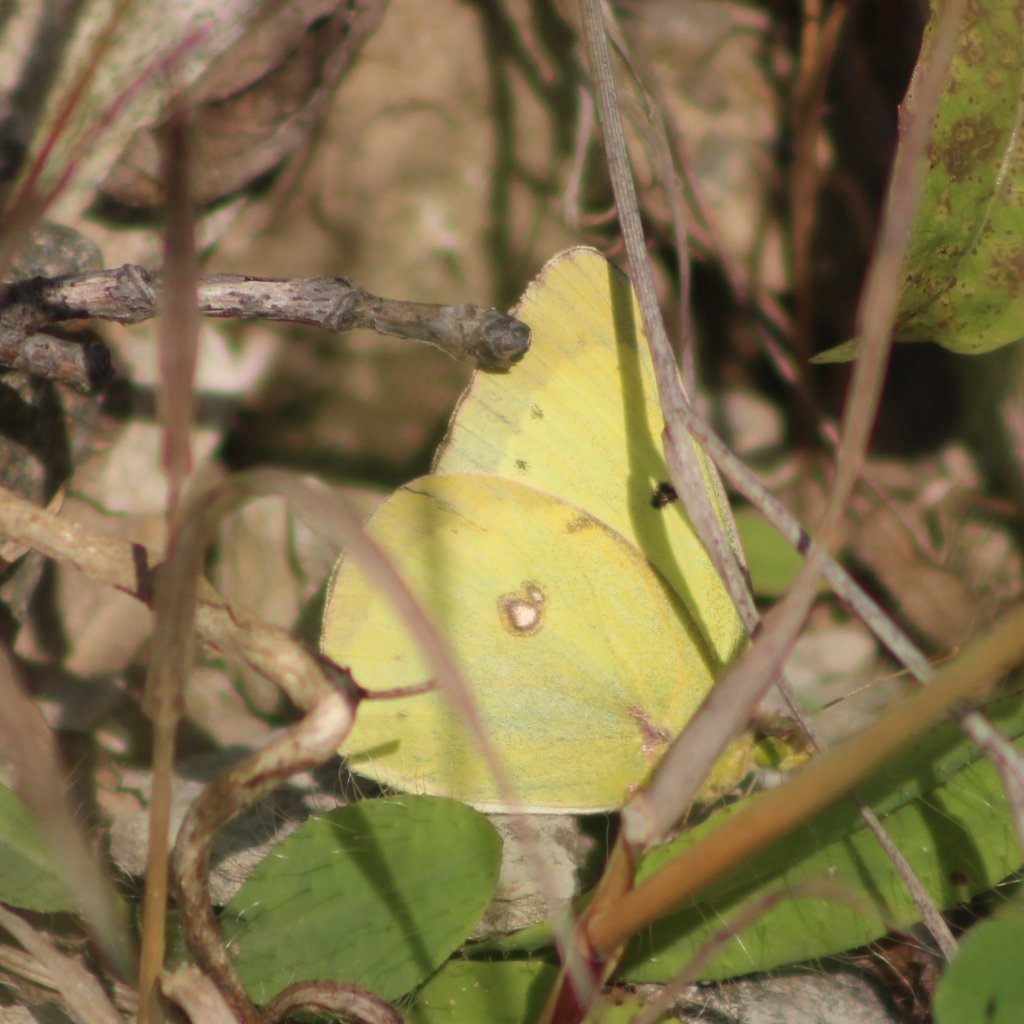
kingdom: Animalia
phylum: Arthropoda
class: Insecta
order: Lepidoptera
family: Pieridae
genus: Colias
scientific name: Colias philodice
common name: Clouded Sulphur
